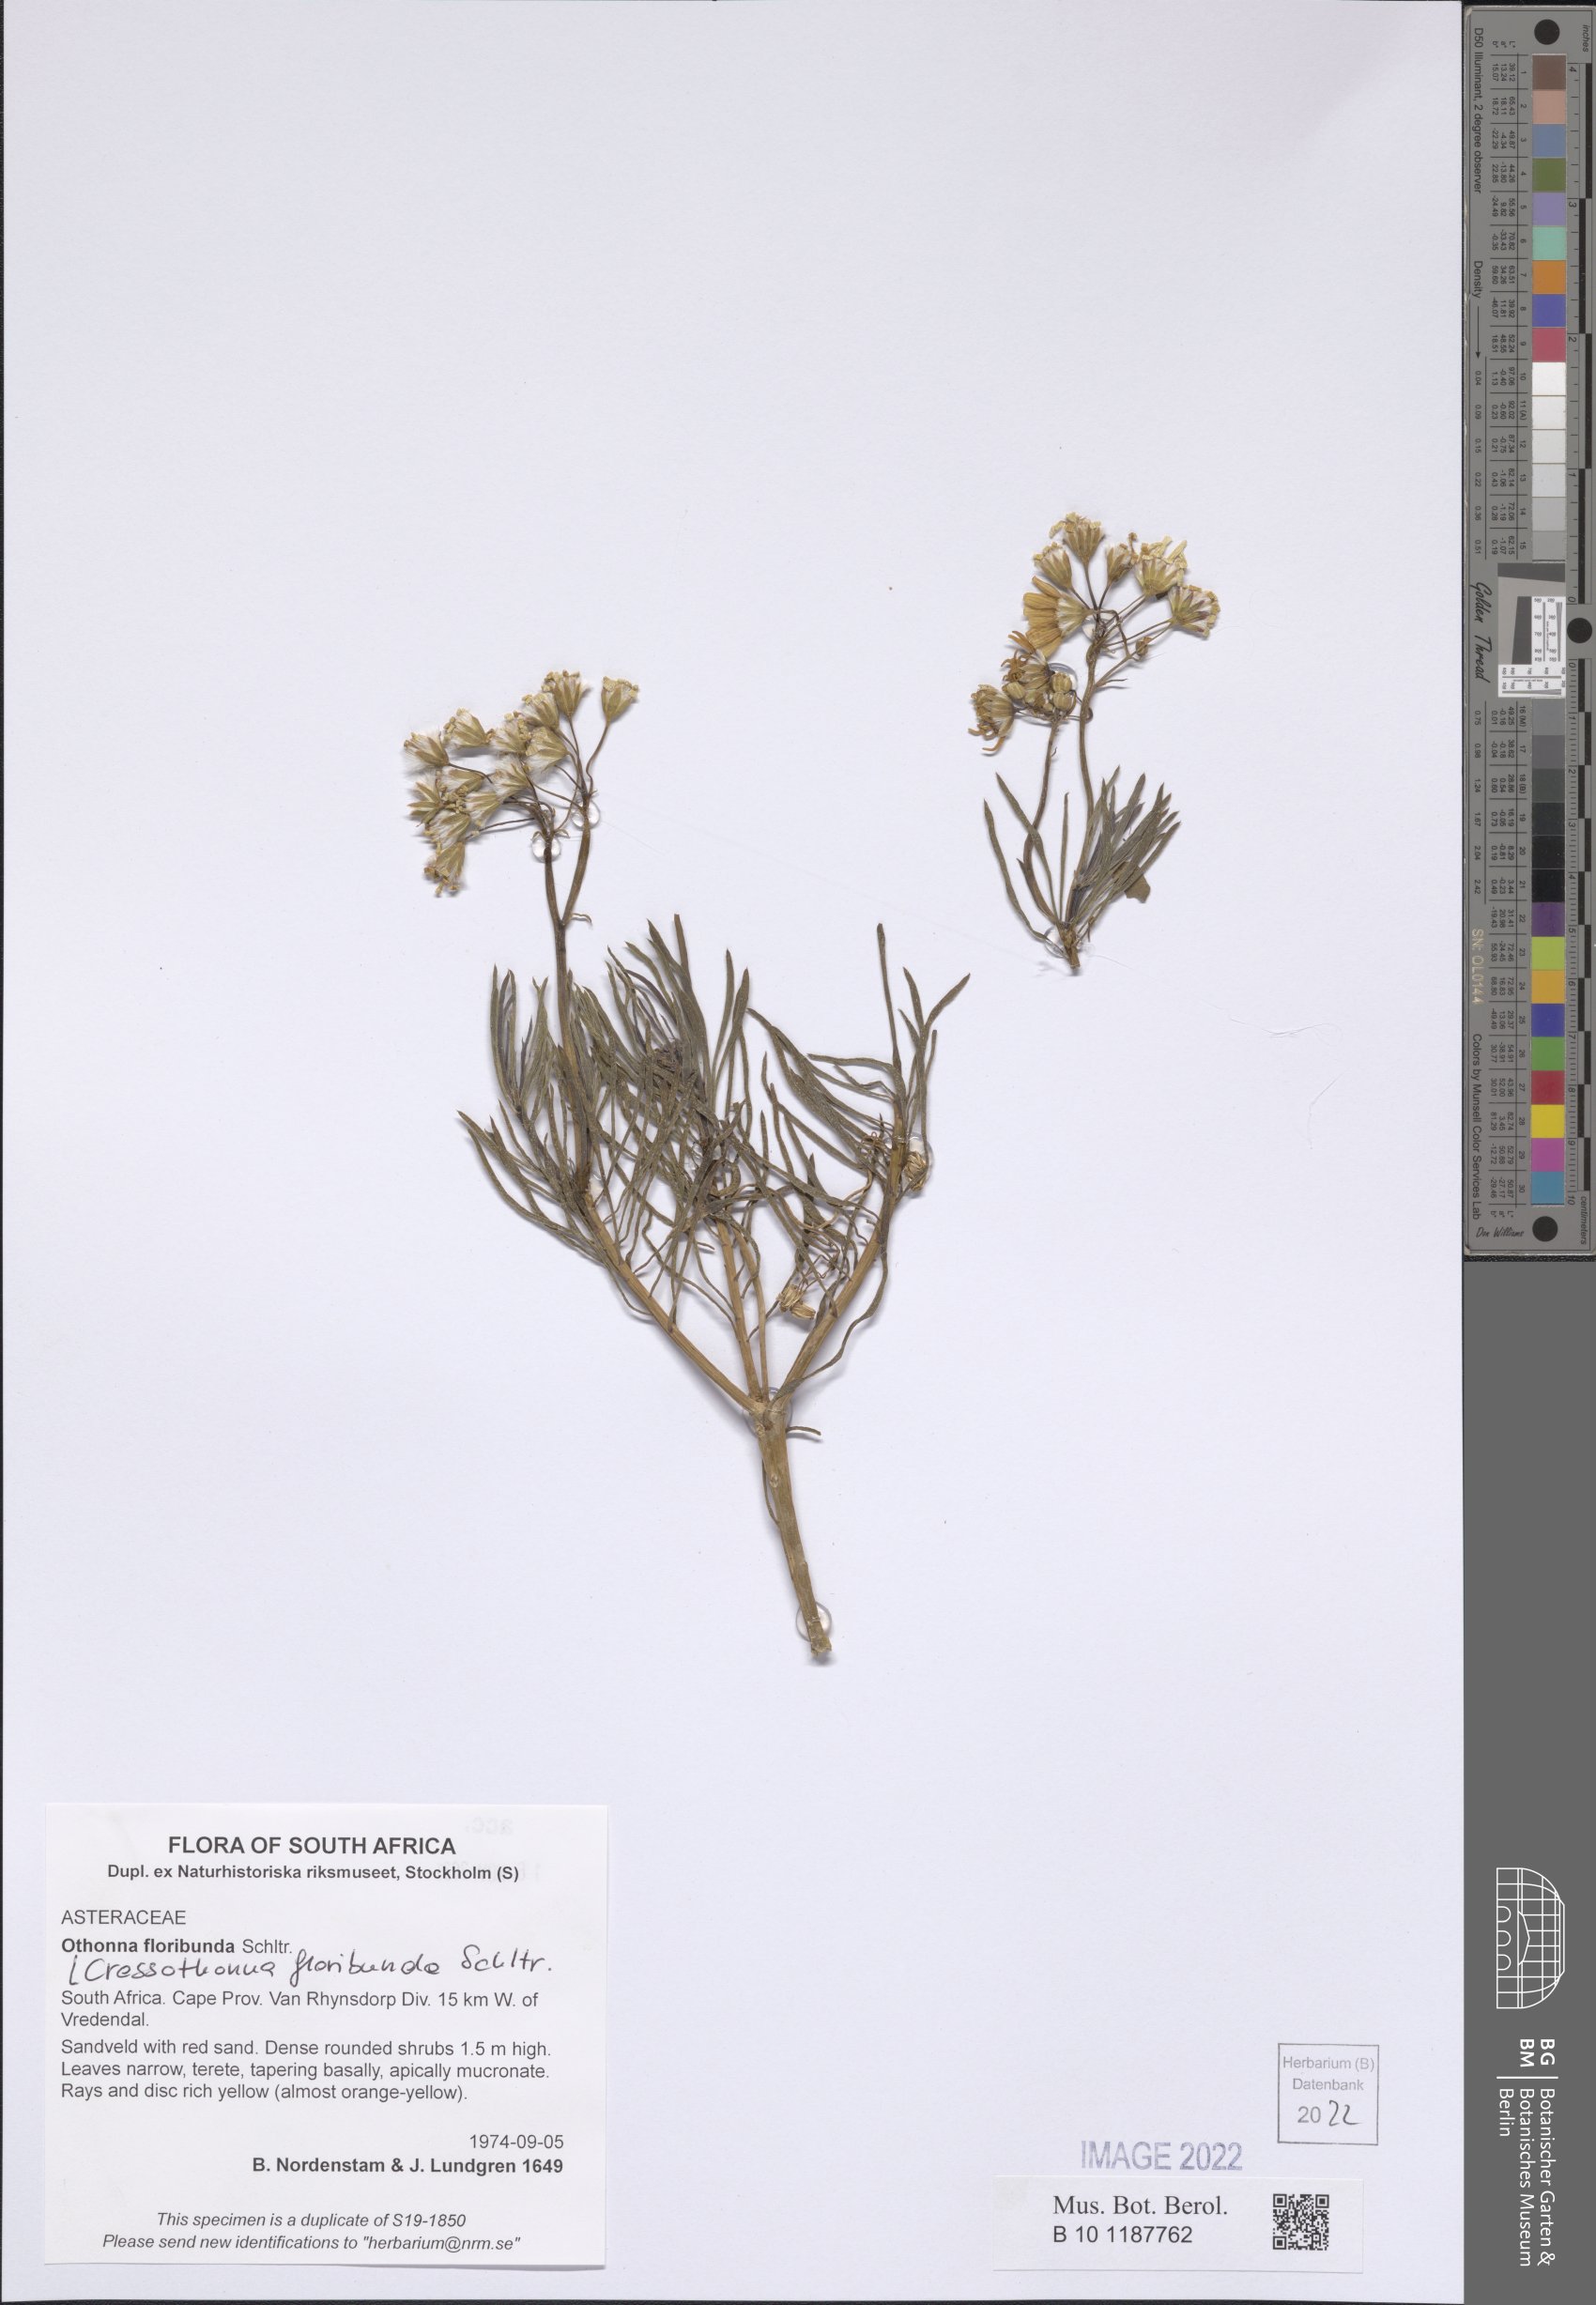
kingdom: Plantae
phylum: Tracheophyta
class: Magnoliopsida
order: Asterales
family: Asteraceae
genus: Crassothonna
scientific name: Crassothonna floribunda
